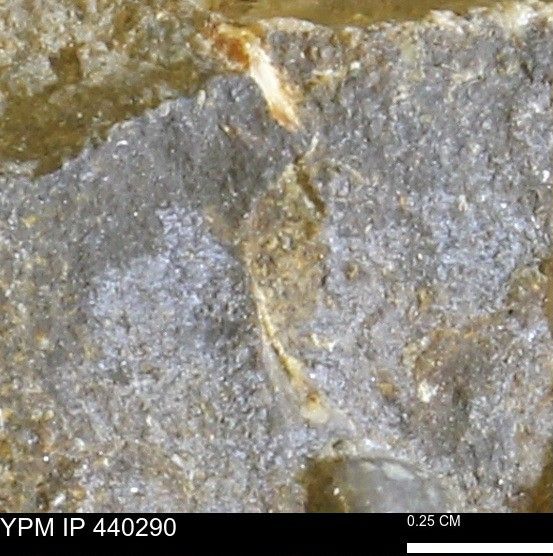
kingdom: Animalia
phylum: Mollusca
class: Bivalvia
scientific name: Bivalvia
